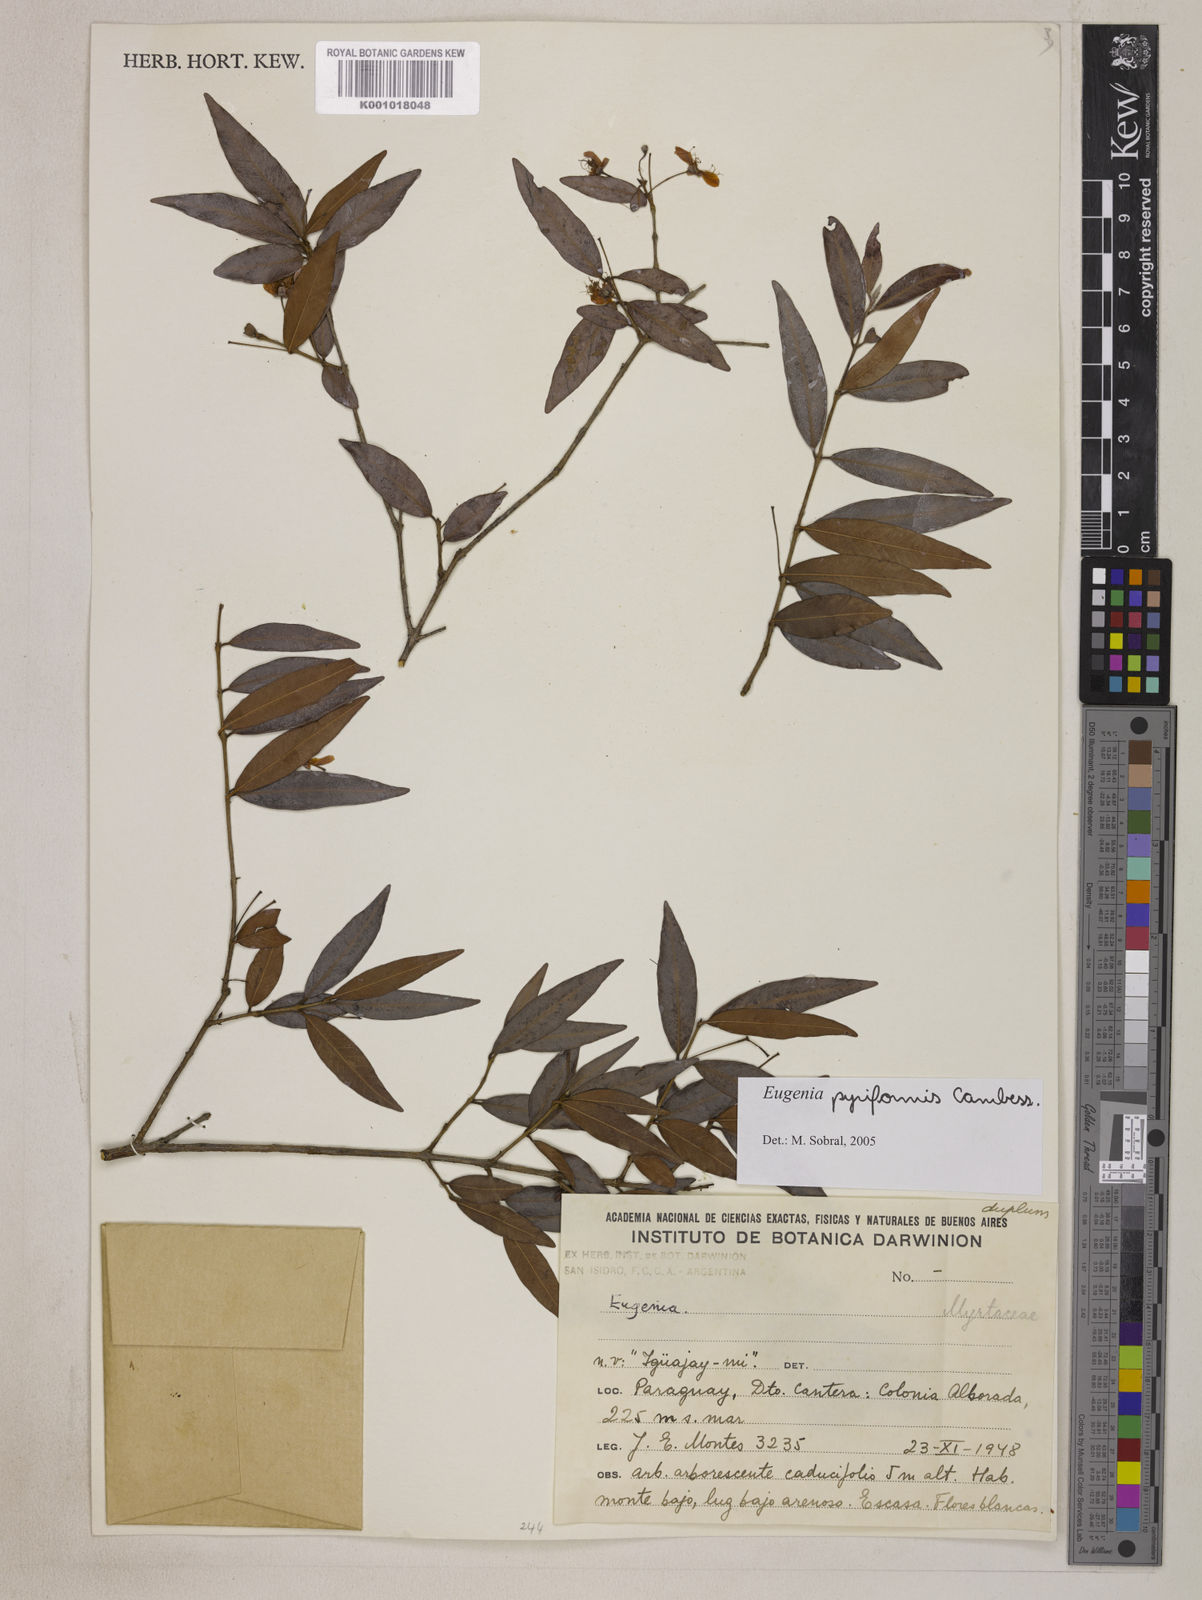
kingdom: Plantae
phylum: Tracheophyta
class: Magnoliopsida
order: Myrtales
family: Myrtaceae
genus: Eugenia
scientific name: Eugenia pyriformis
